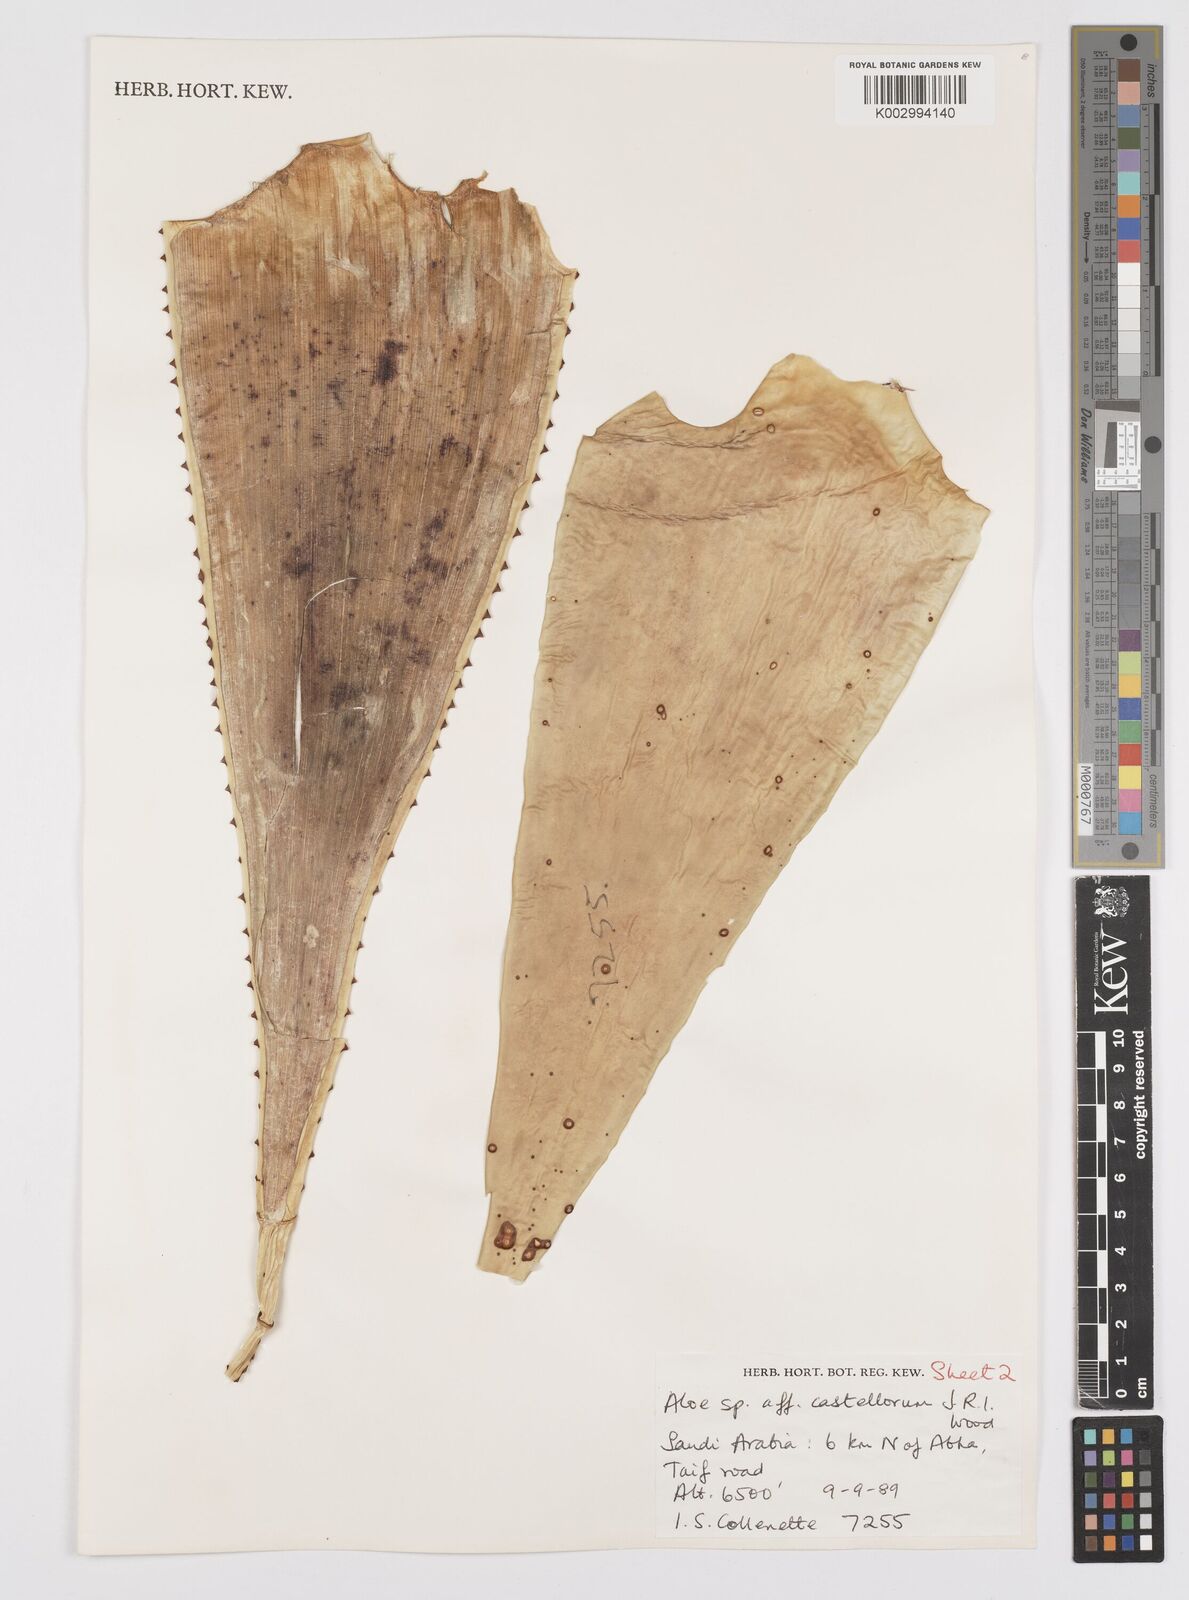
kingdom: Plantae
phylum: Tracheophyta
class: Liliopsida
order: Asparagales
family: Asphodelaceae
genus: Aloe
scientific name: Aloe castellorum
